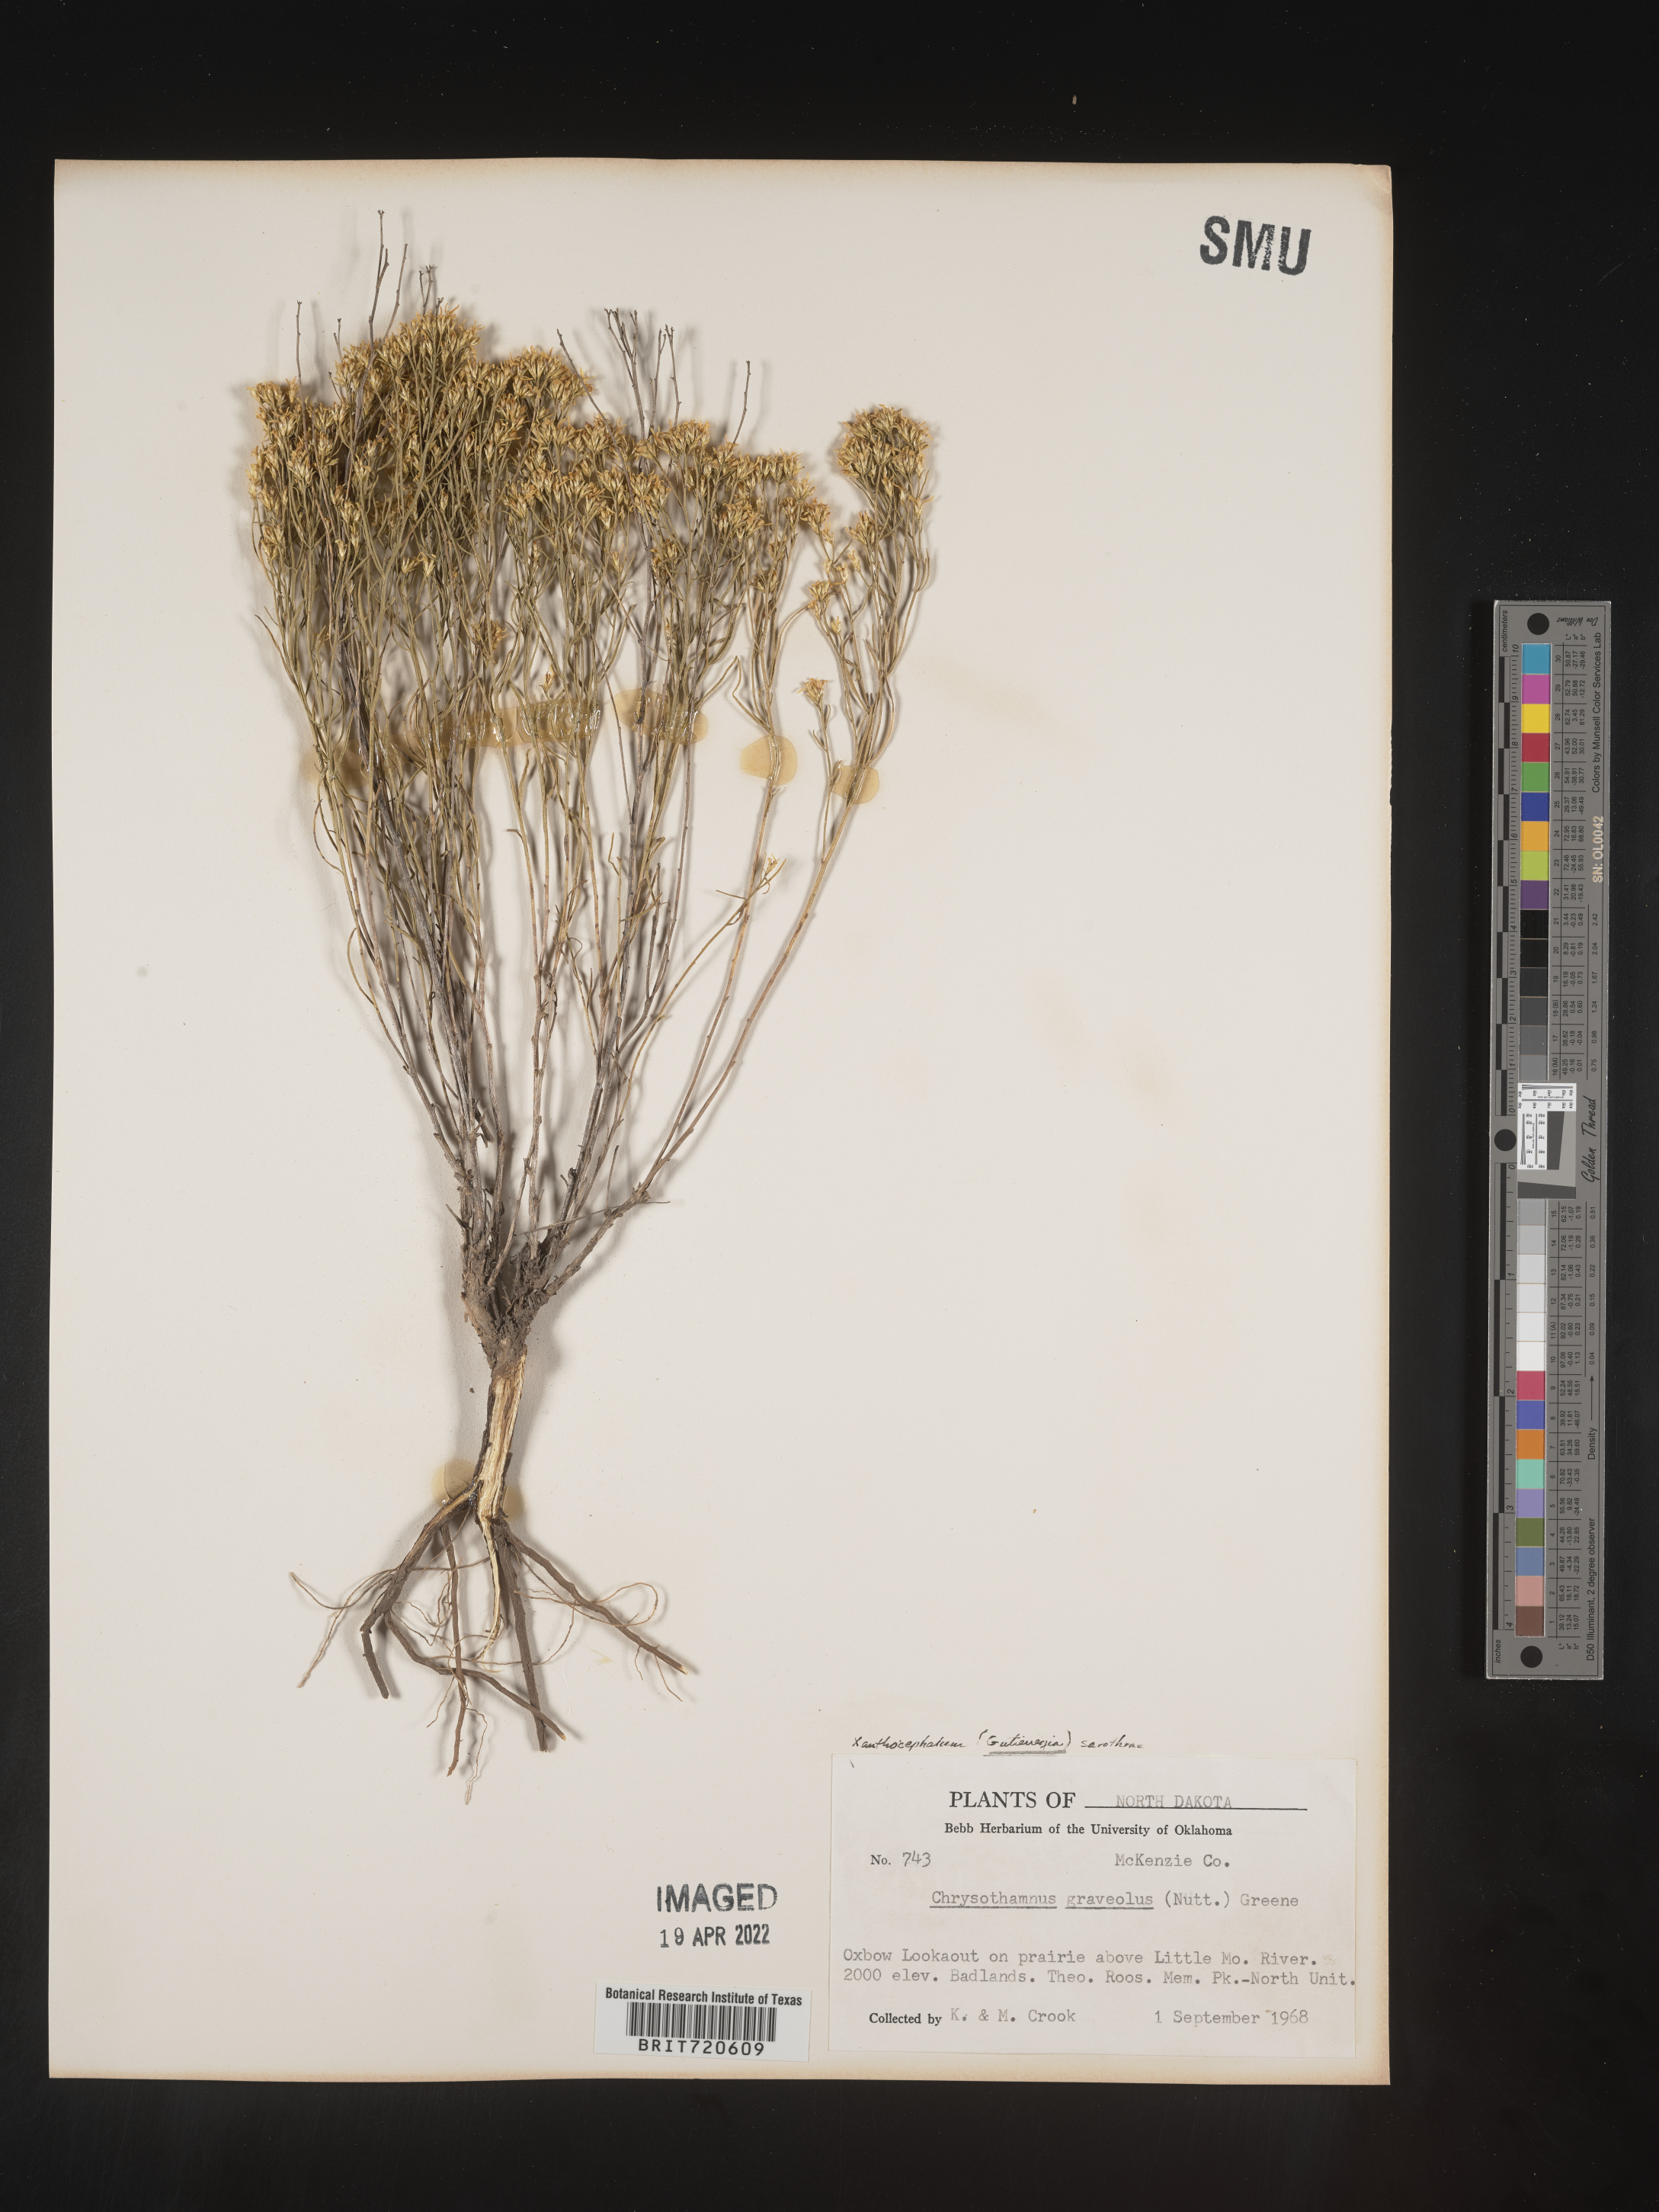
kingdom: Plantae
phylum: Tracheophyta
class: Magnoliopsida
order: Asterales
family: Asteraceae
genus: Gutierrezia
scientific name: Gutierrezia sarothrae
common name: Broom snakeweed
